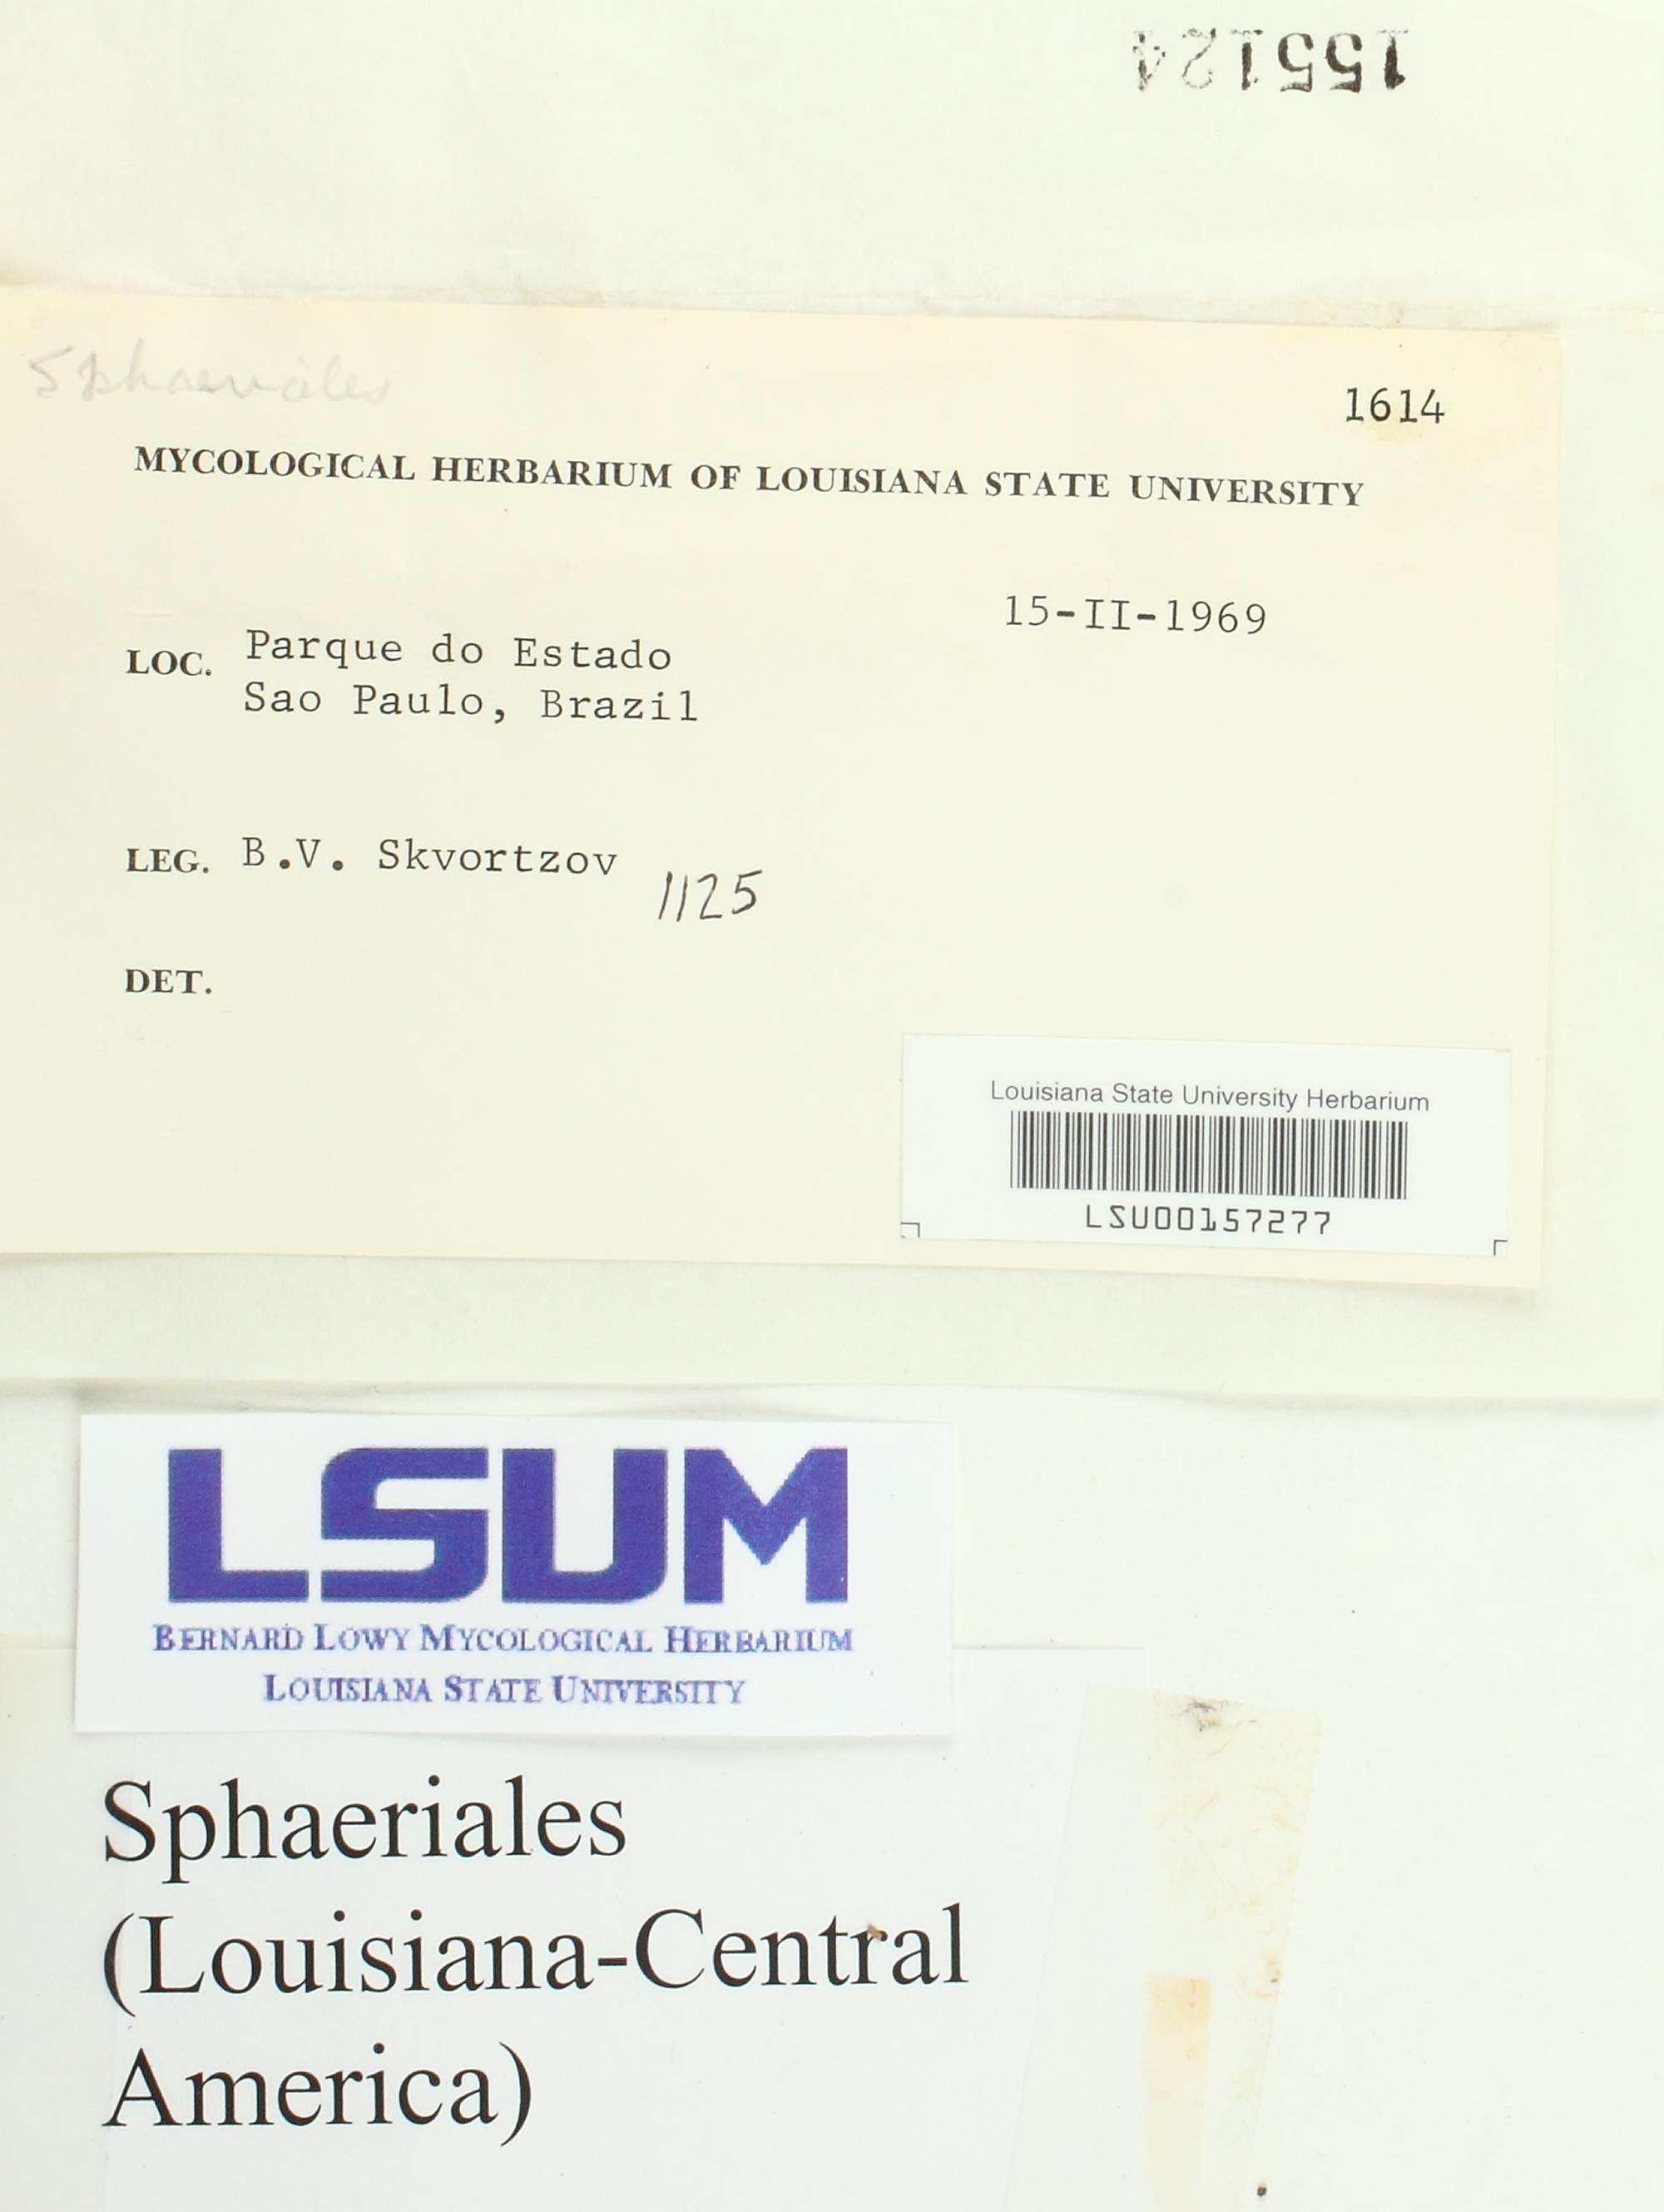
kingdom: Fungi
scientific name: Fungi
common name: Fungi
